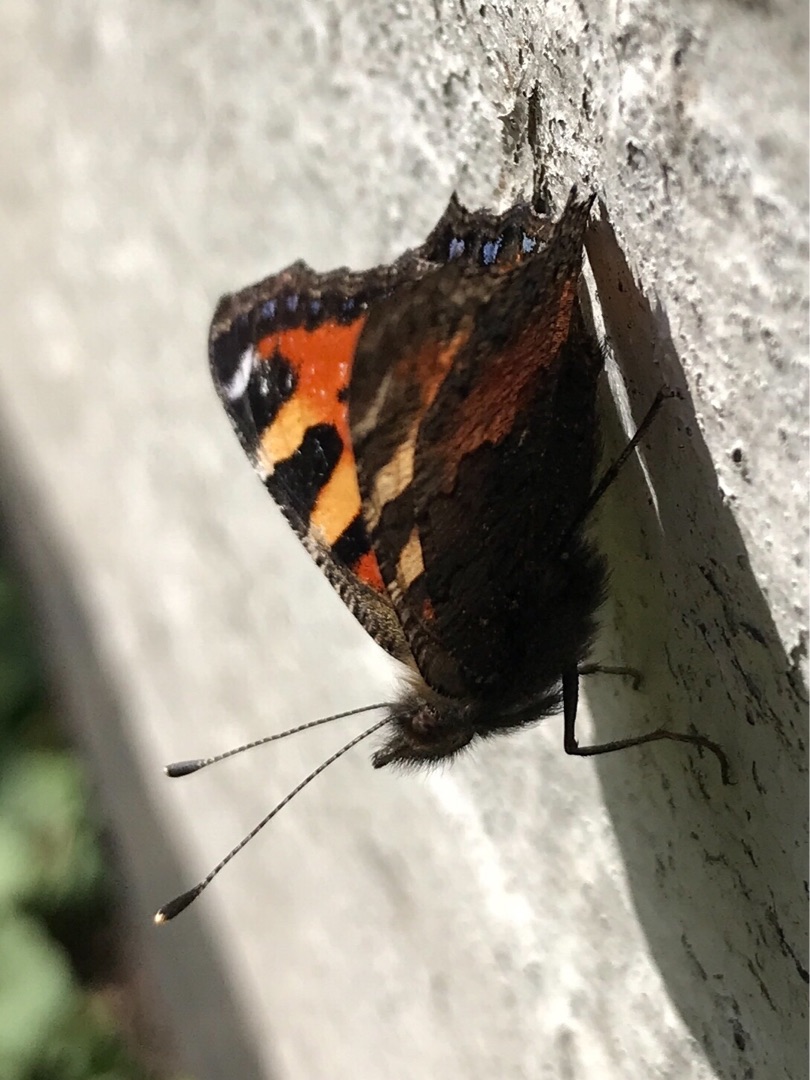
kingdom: Animalia
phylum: Arthropoda
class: Insecta
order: Lepidoptera
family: Nymphalidae
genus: Aglais
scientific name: Aglais urticae
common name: Nældens takvinge
